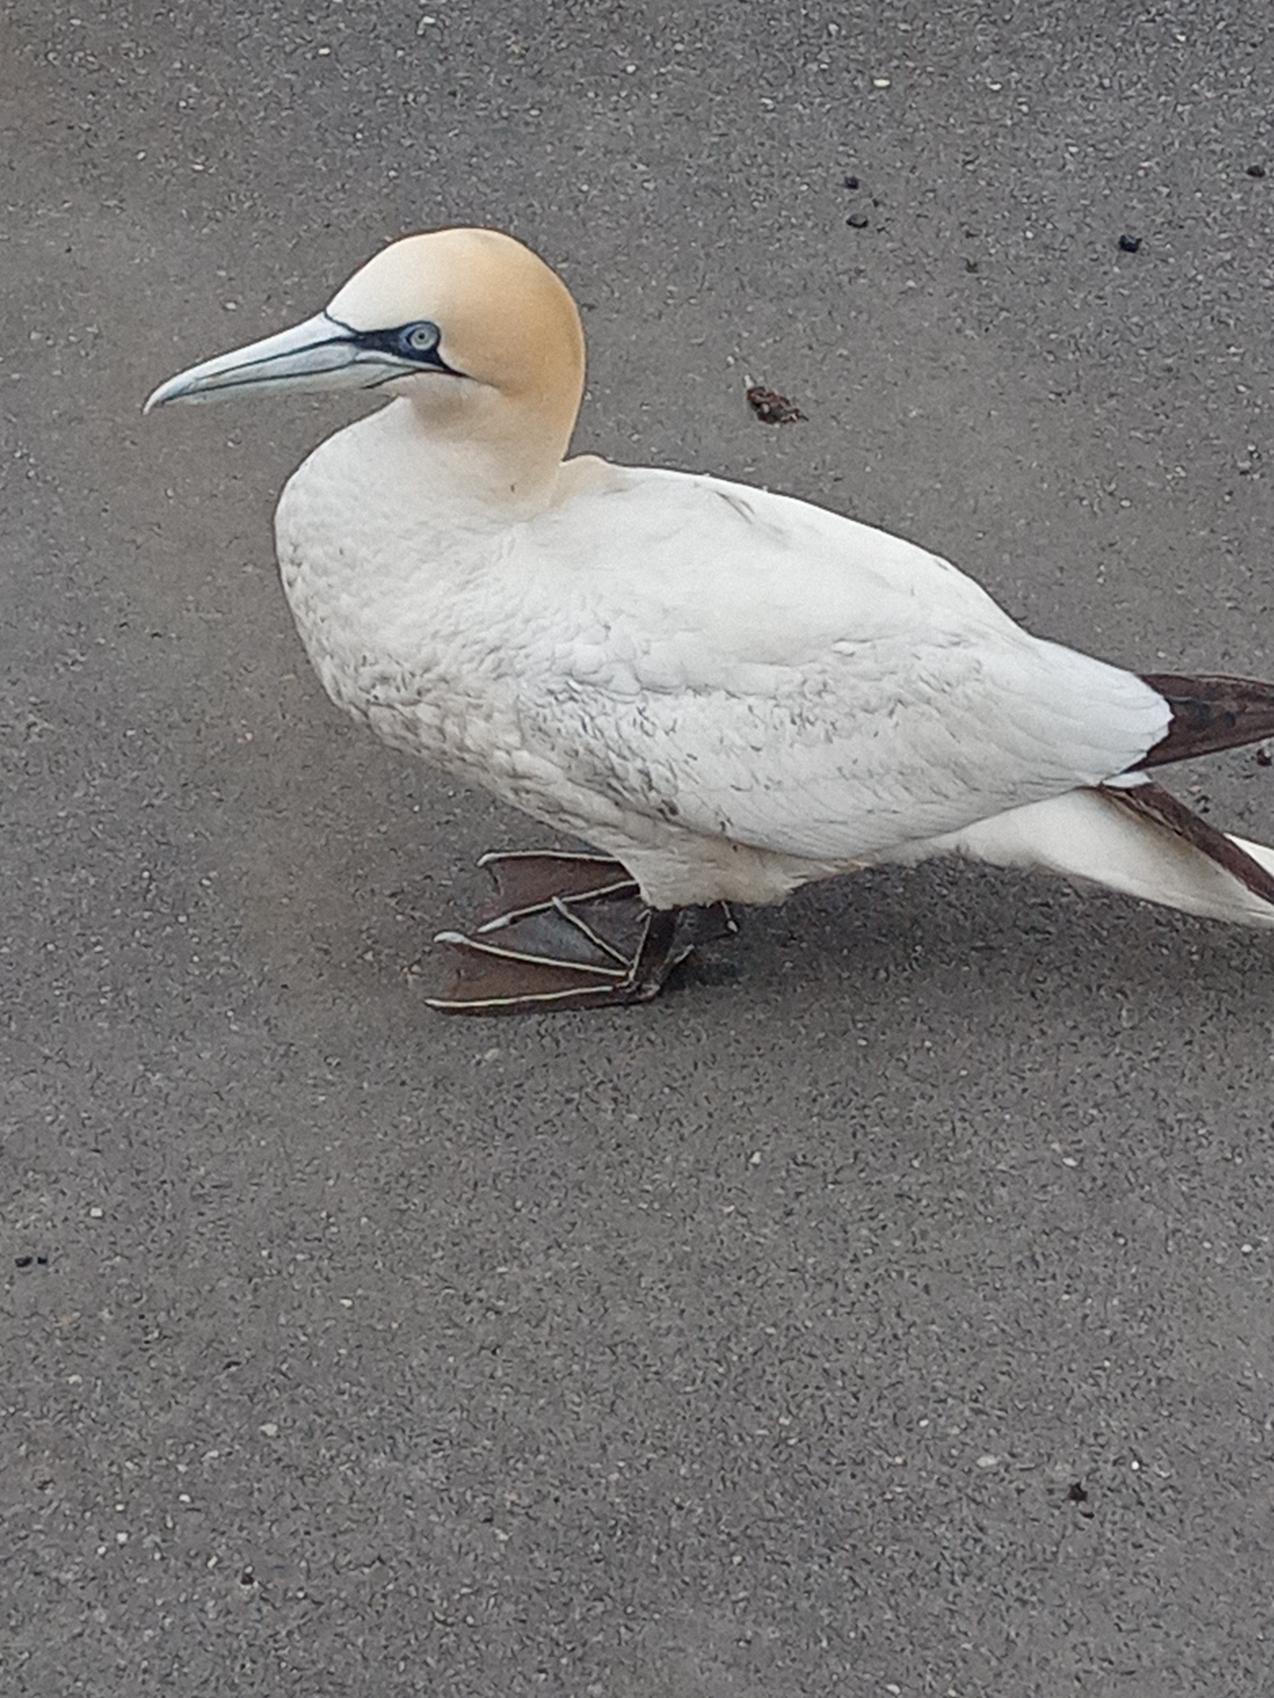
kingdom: Animalia
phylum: Chordata
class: Aves
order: Suliformes
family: Sulidae
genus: Morus
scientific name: Morus bassanus
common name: Sule
